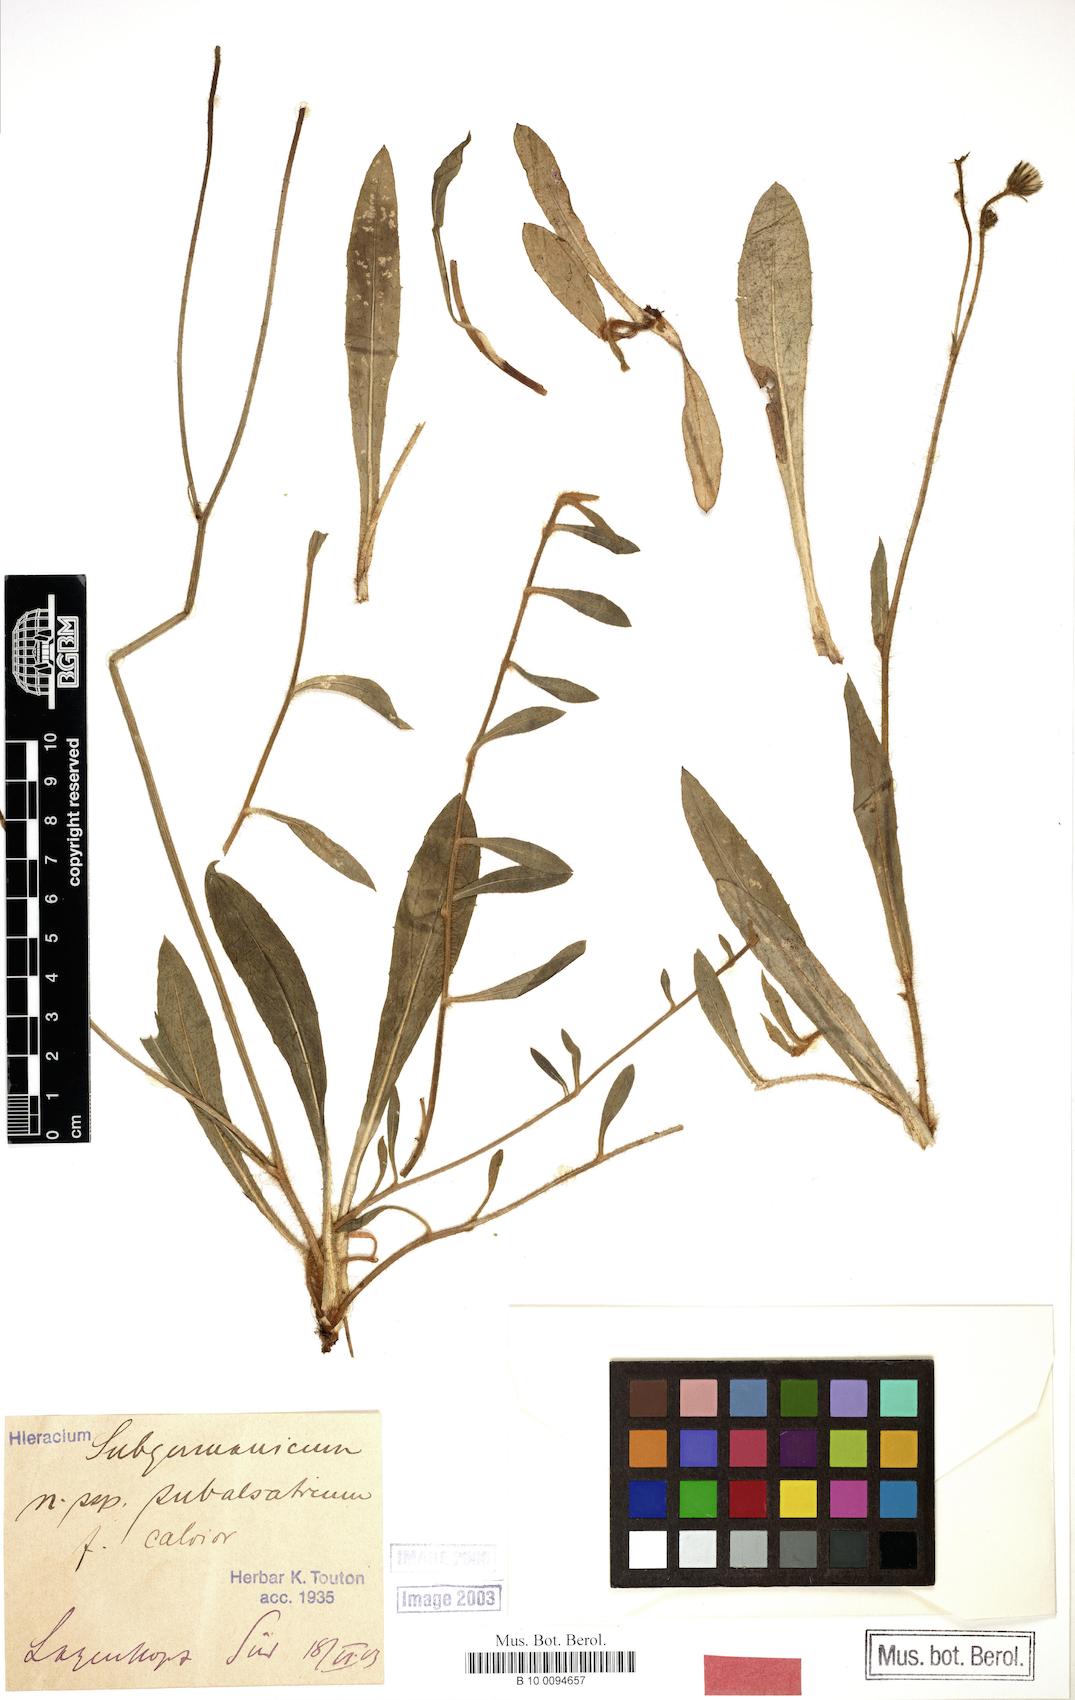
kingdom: Plantae
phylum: Tracheophyta
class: Magnoliopsida
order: Asterales
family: Asteraceae
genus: Pilosella
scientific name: Pilosella pilosellina
